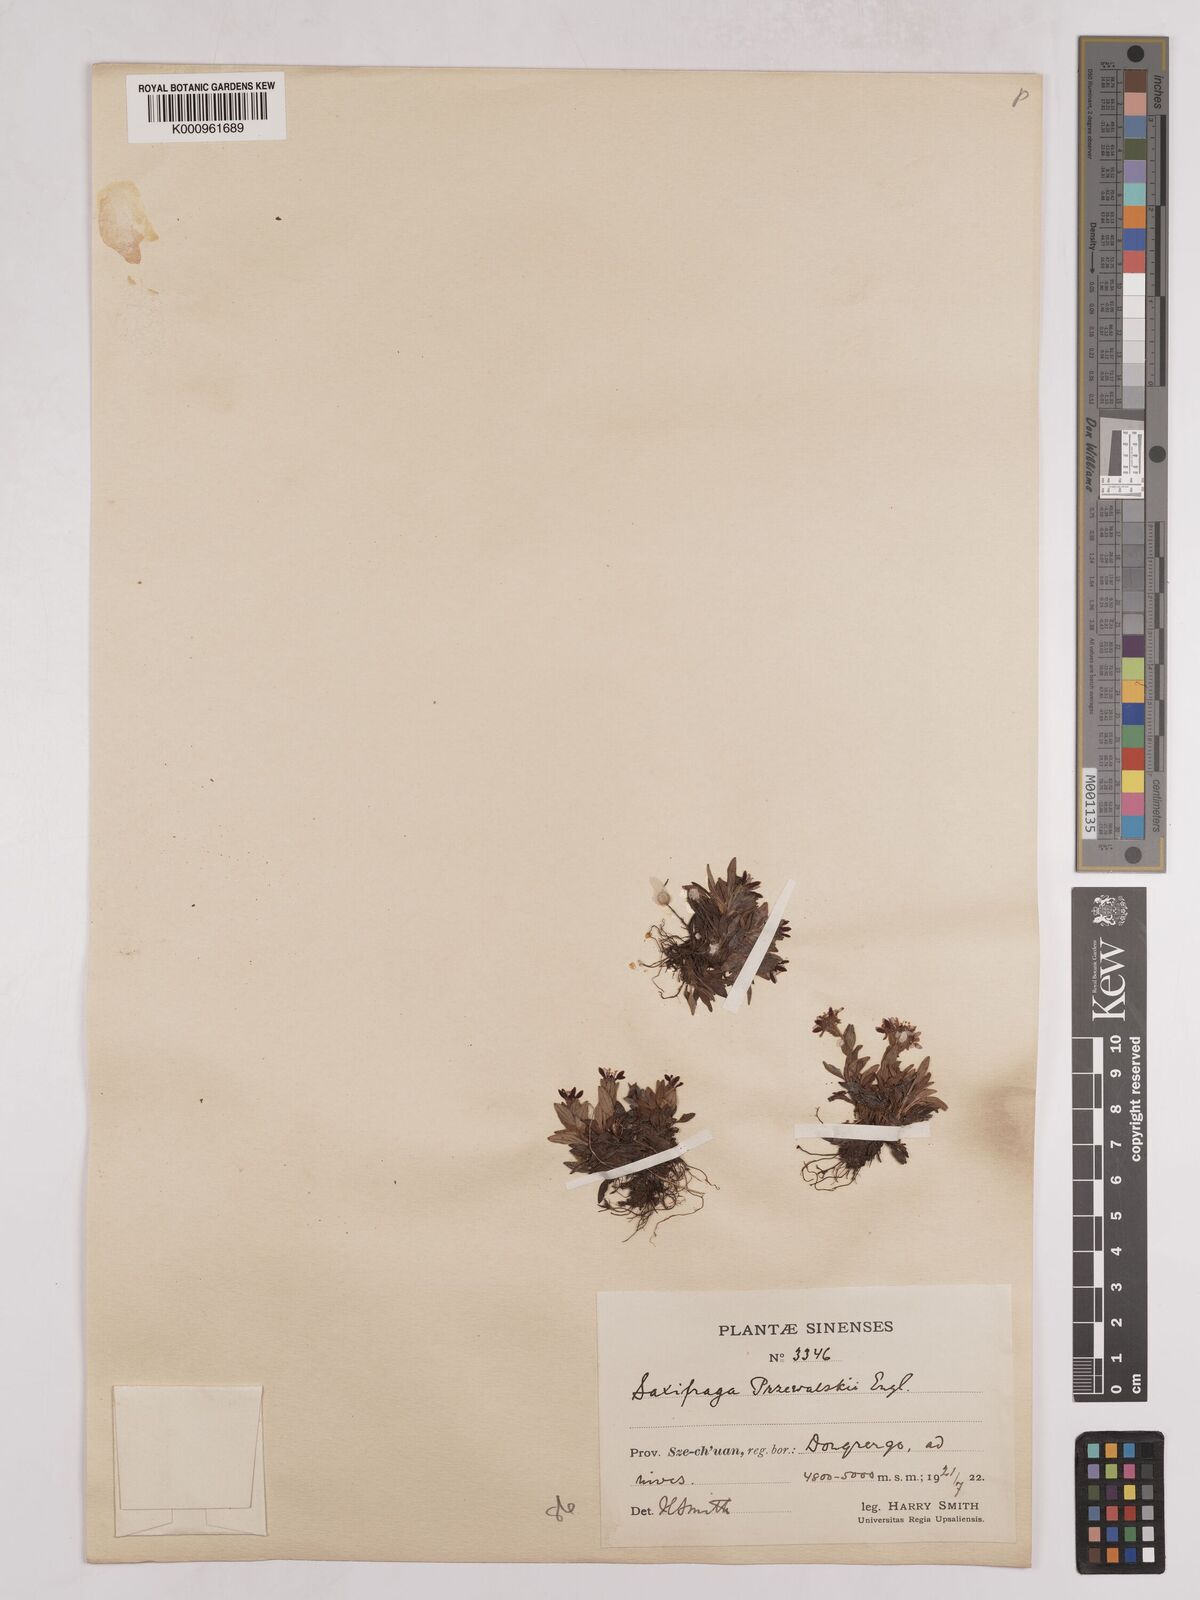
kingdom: Plantae
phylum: Tracheophyta
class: Magnoliopsida
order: Saxifragales
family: Saxifragaceae
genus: Saxifraga
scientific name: Saxifraga
